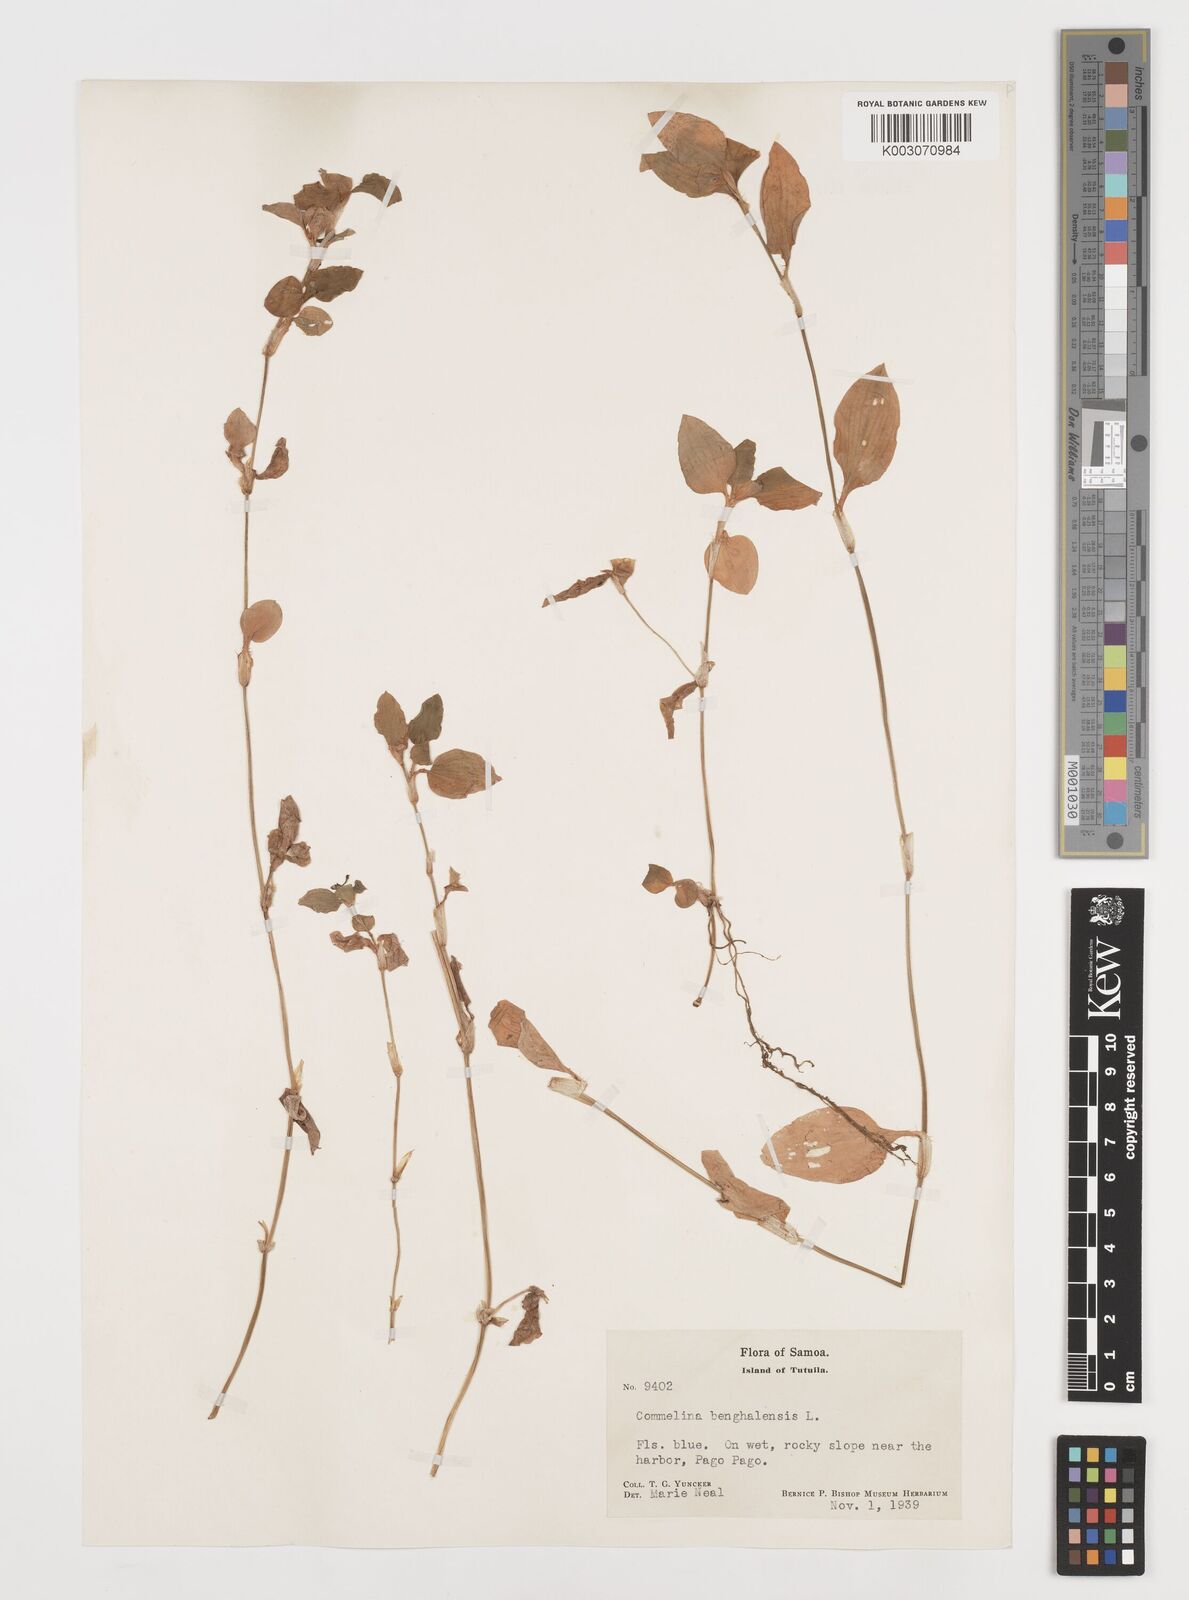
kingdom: Plantae
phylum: Tracheophyta
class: Liliopsida
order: Commelinales
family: Commelinaceae
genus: Commelina
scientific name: Commelina benghalensis
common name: Jio
